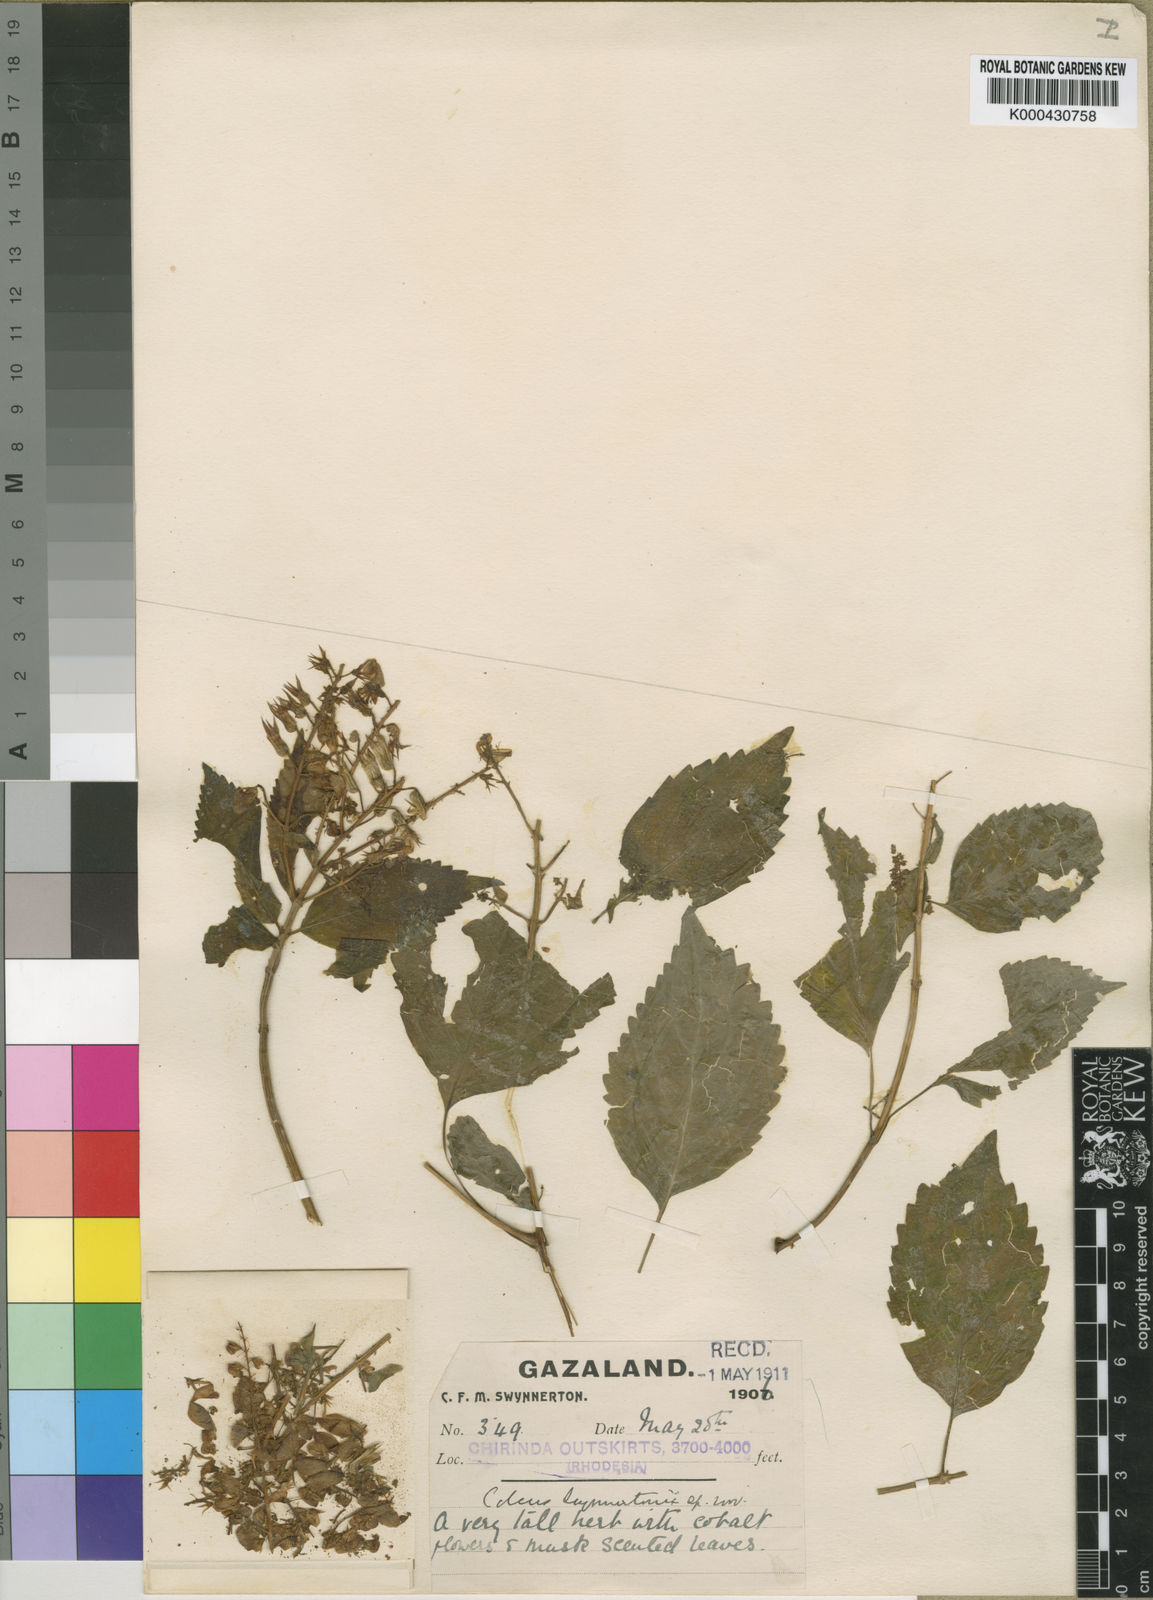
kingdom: Plantae
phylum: Tracheophyta
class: Magnoliopsida
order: Lamiales
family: Lamiaceae
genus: Plectranthus
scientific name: Plectranthus longipetiolatus
